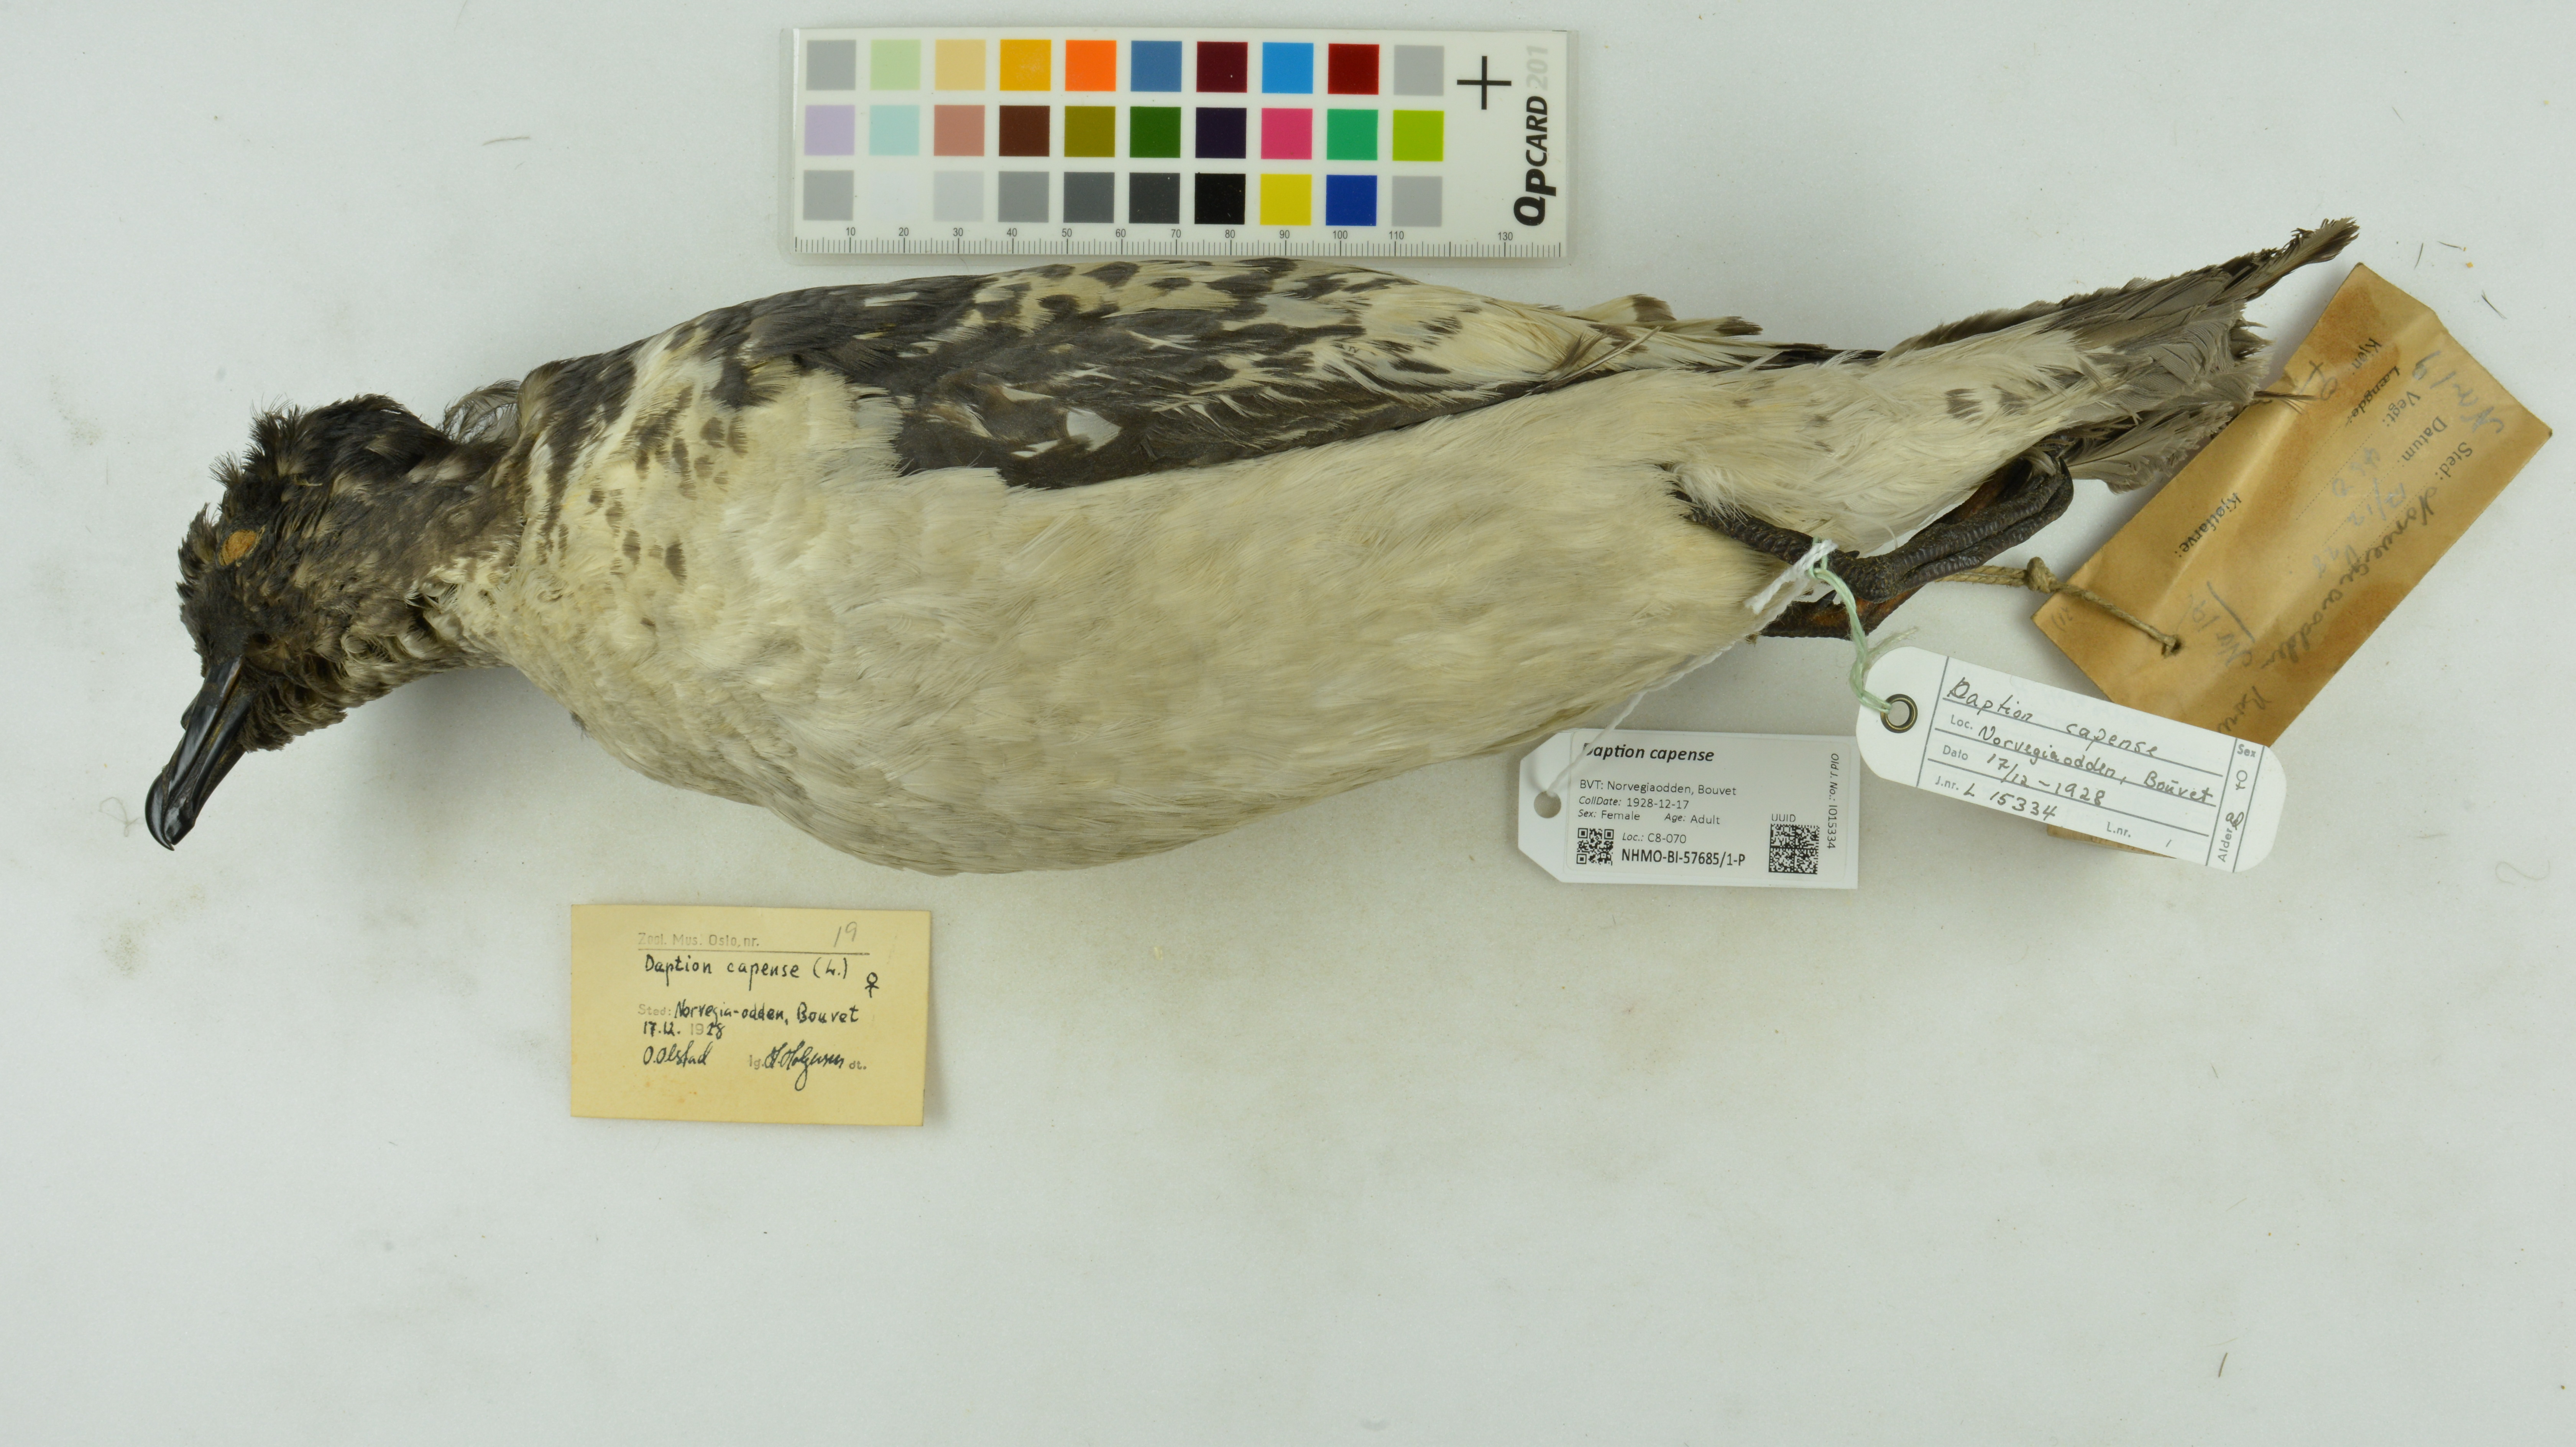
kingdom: Animalia
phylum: Chordata
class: Aves
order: Procellariiformes
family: Procellariidae
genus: Daption
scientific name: Daption capense
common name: Cape petrel
